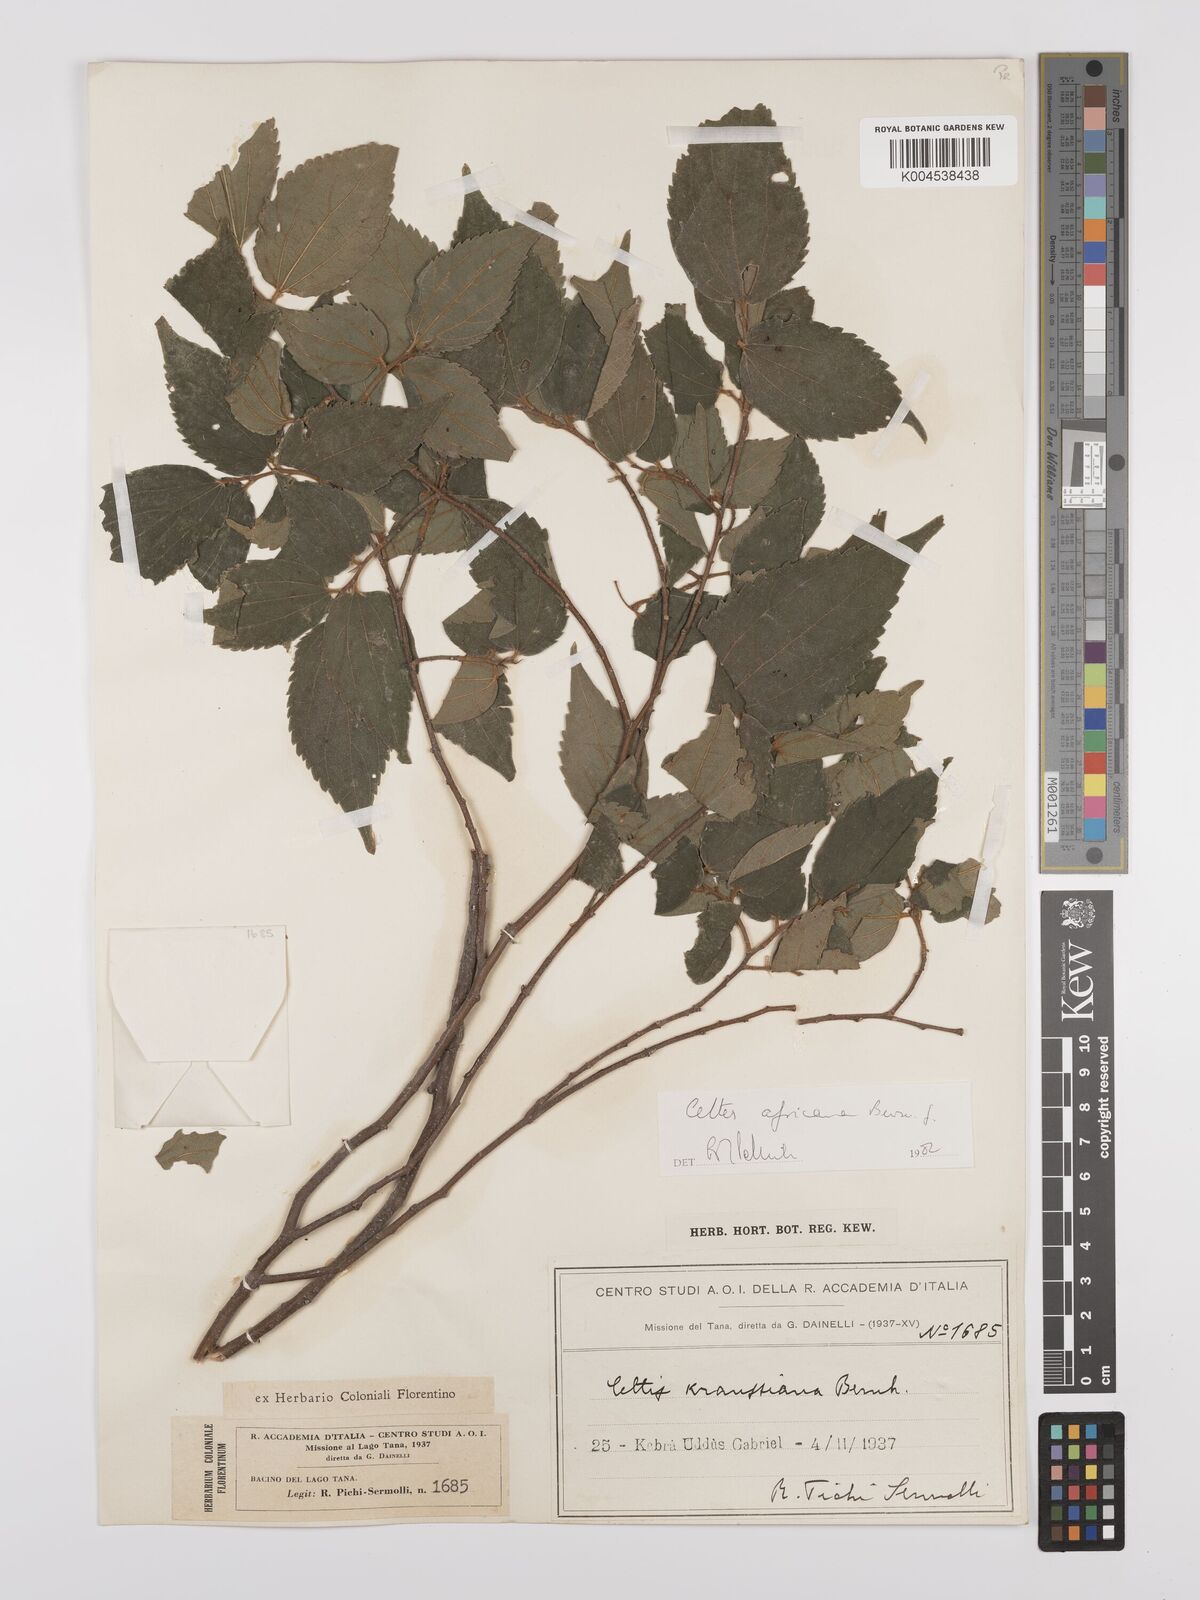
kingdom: Plantae
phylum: Tracheophyta
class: Magnoliopsida
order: Rosales
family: Cannabaceae
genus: Celtis
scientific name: Celtis africana
